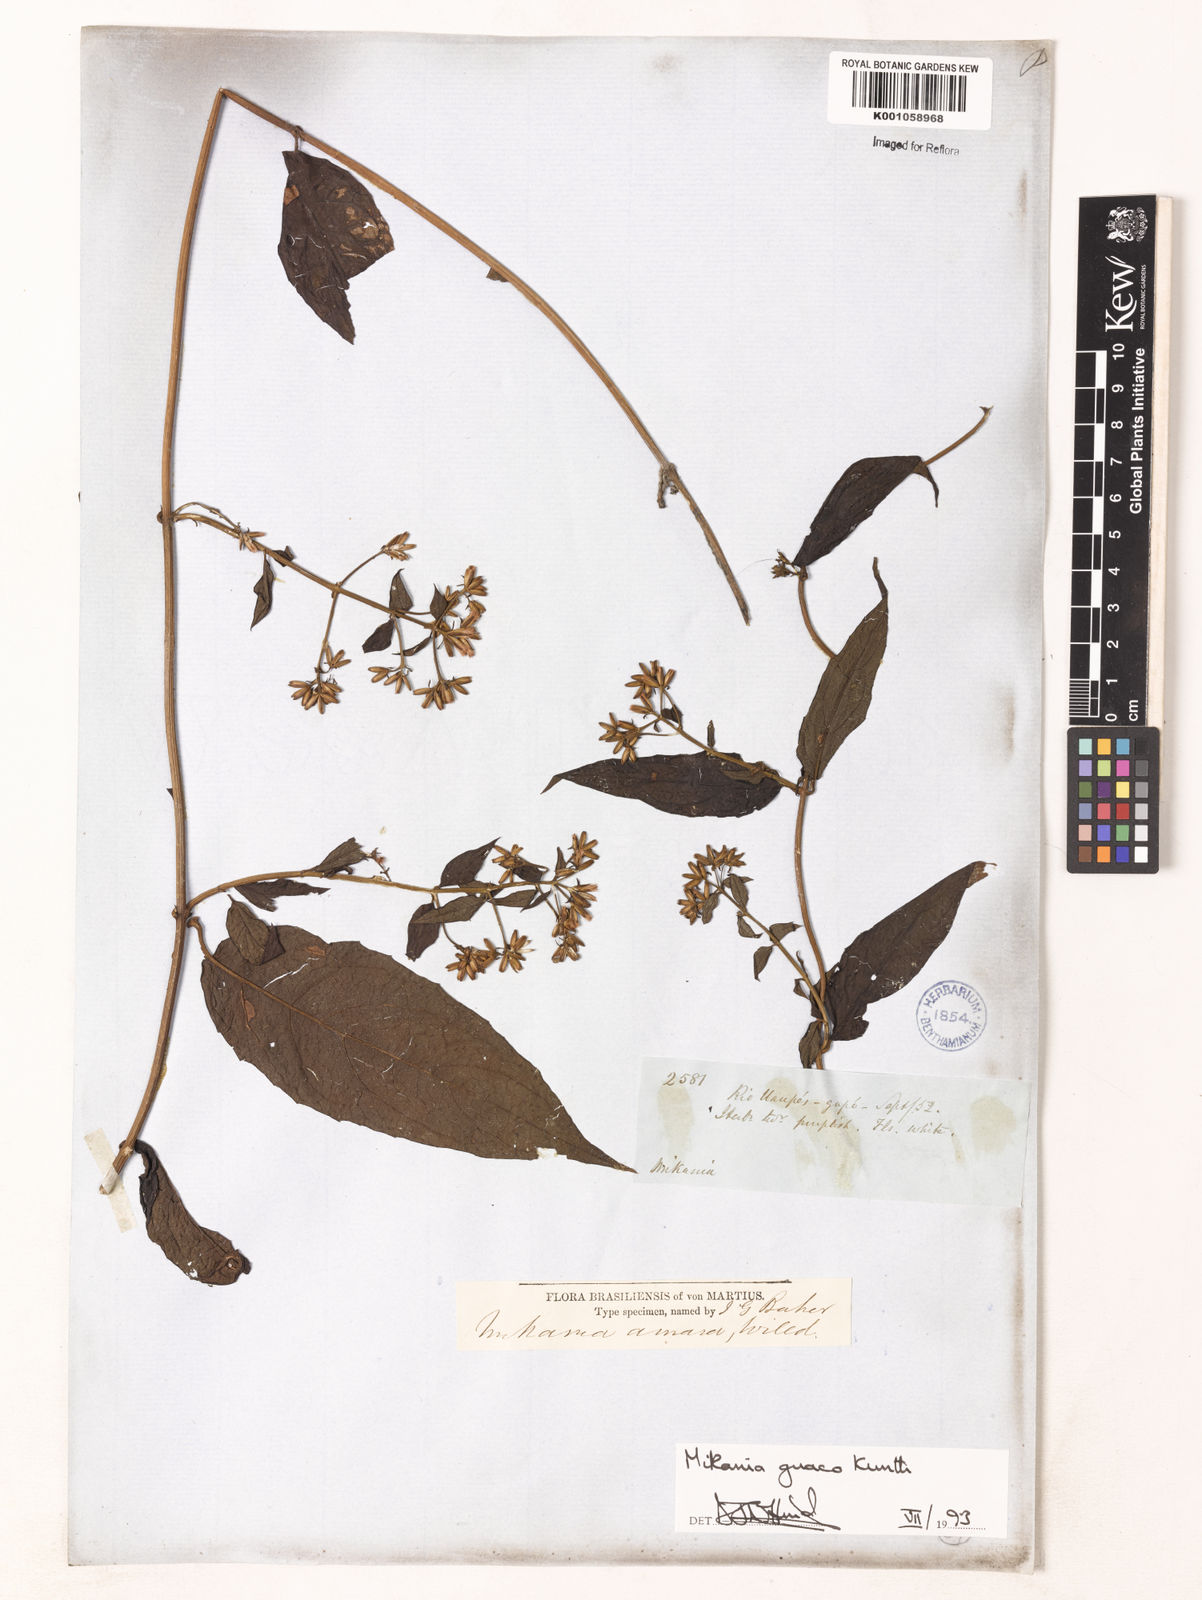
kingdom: Plantae
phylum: Tracheophyta
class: Magnoliopsida
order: Asterales
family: Asteraceae
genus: Mikania
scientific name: Mikania guaco
